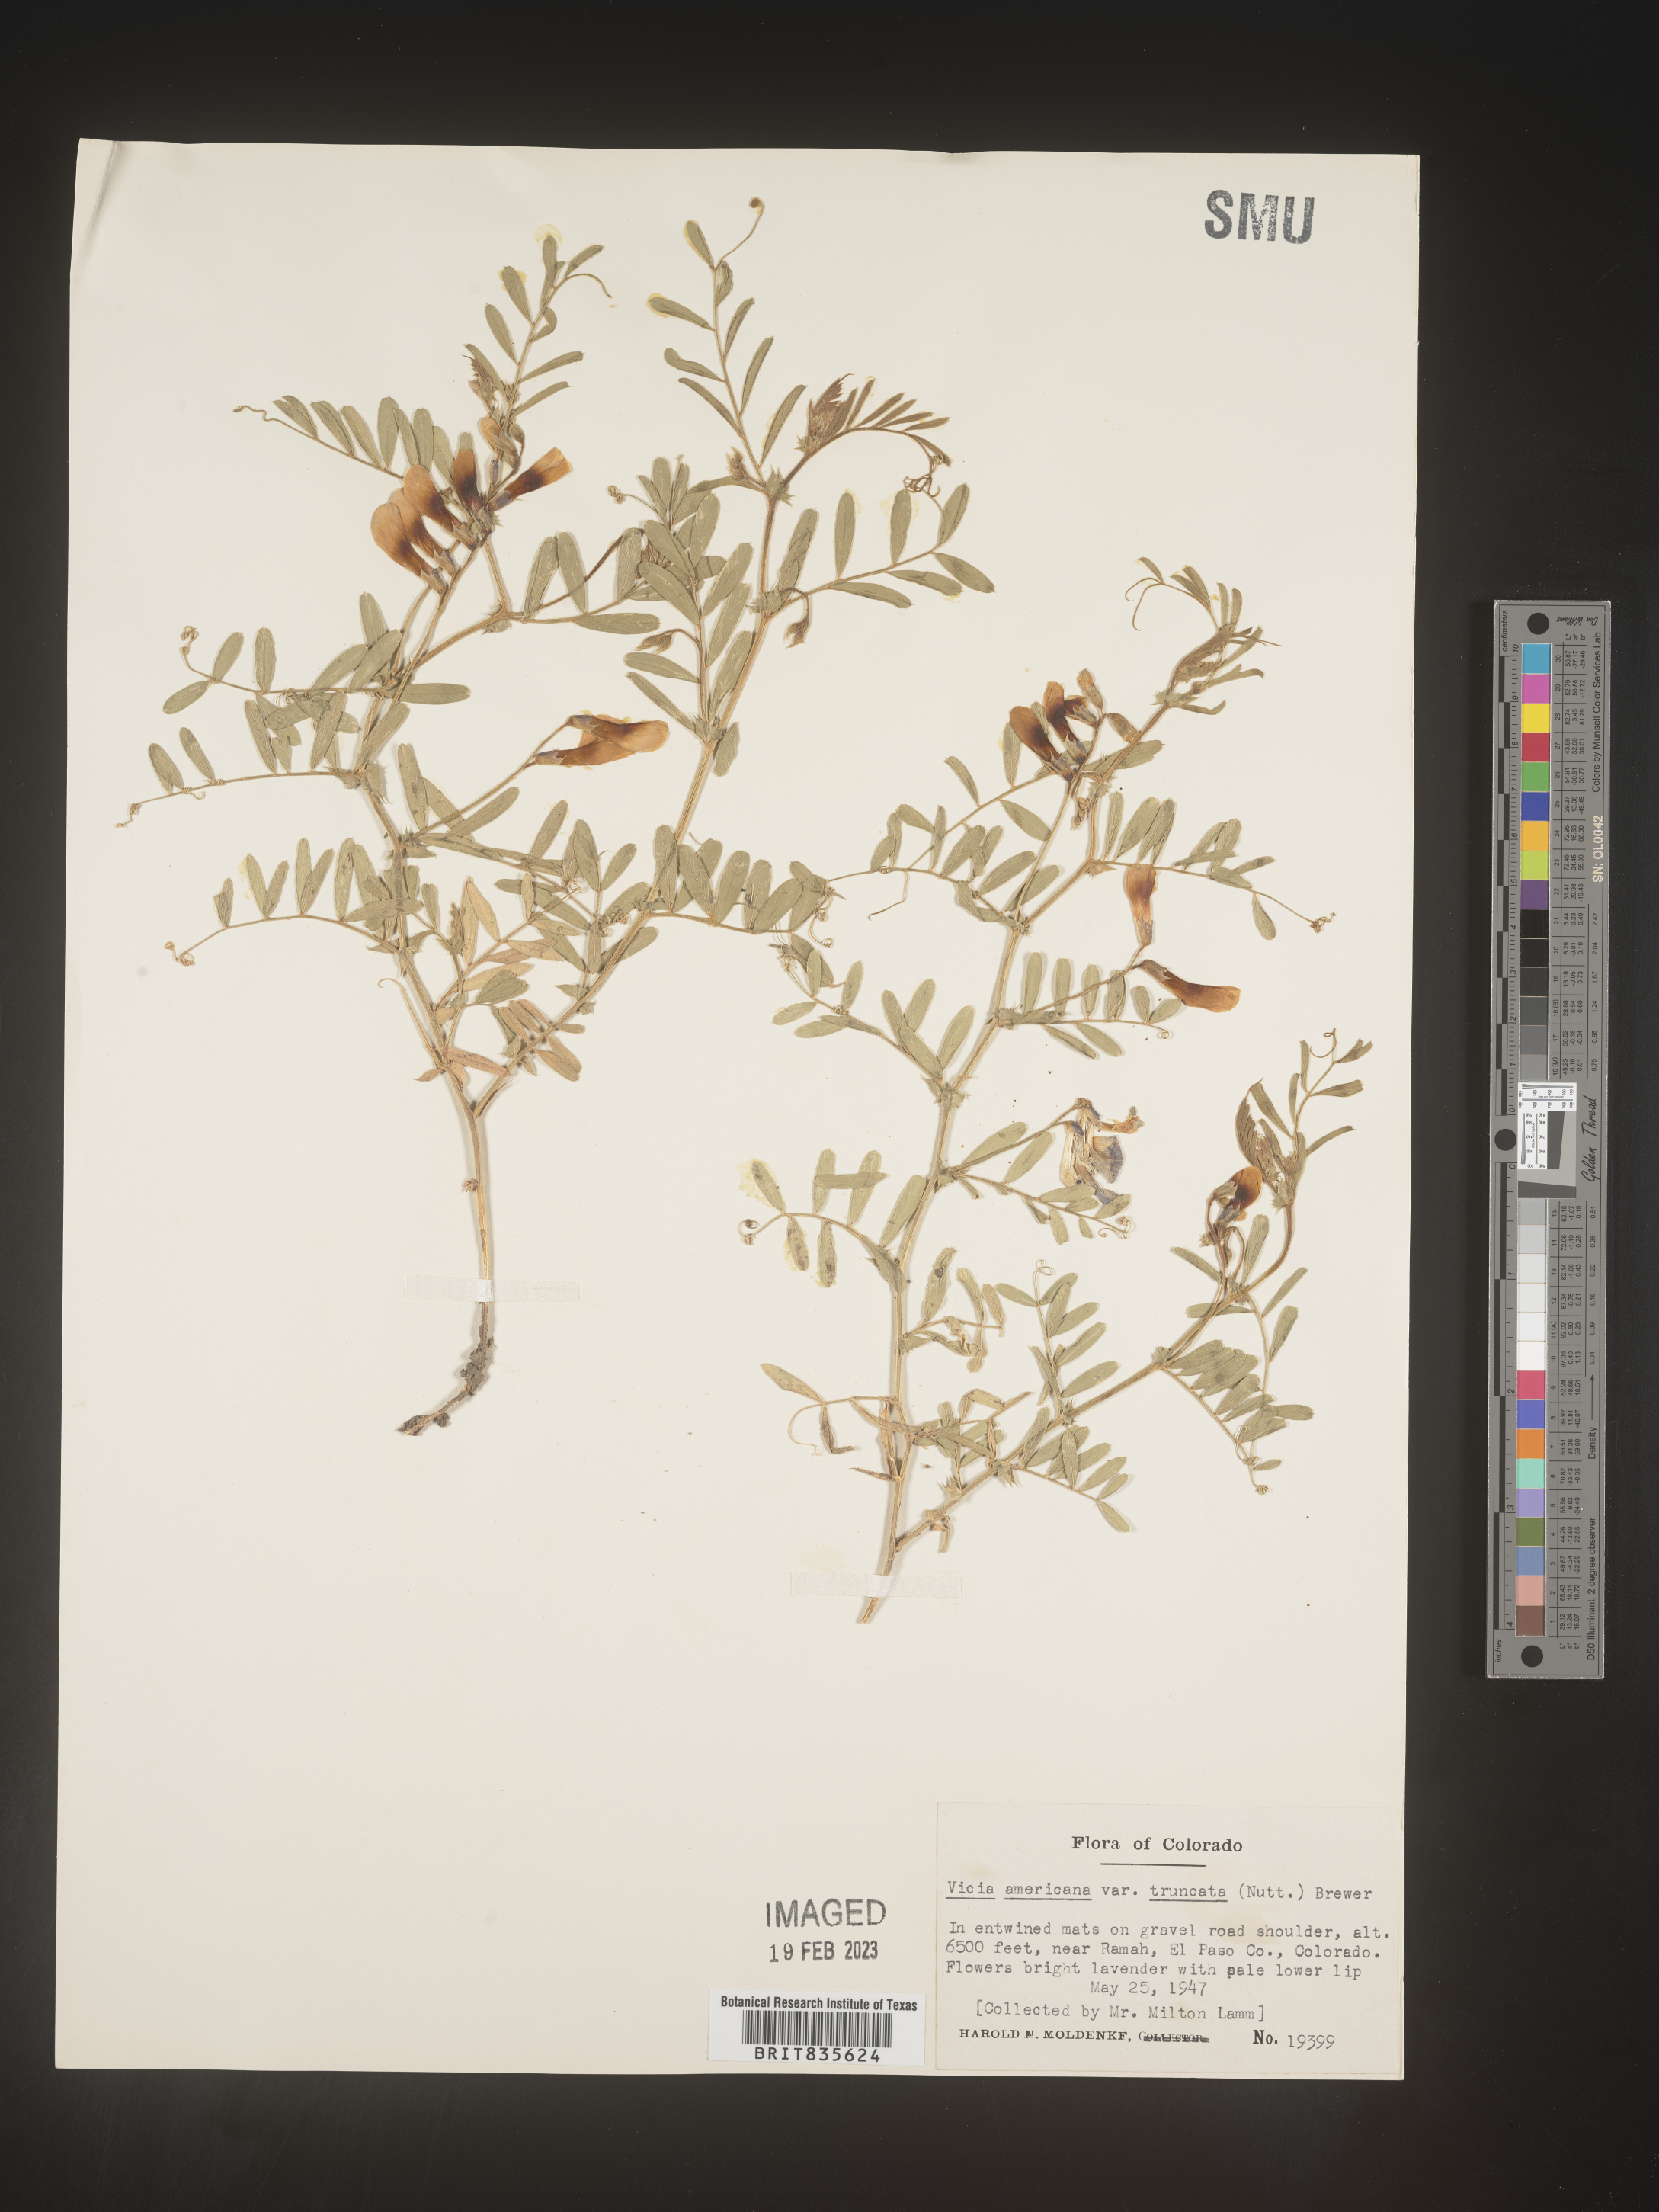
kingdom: Plantae
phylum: Tracheophyta
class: Magnoliopsida
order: Fabales
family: Fabaceae
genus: Vicia
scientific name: Vicia americana
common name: American vetch
